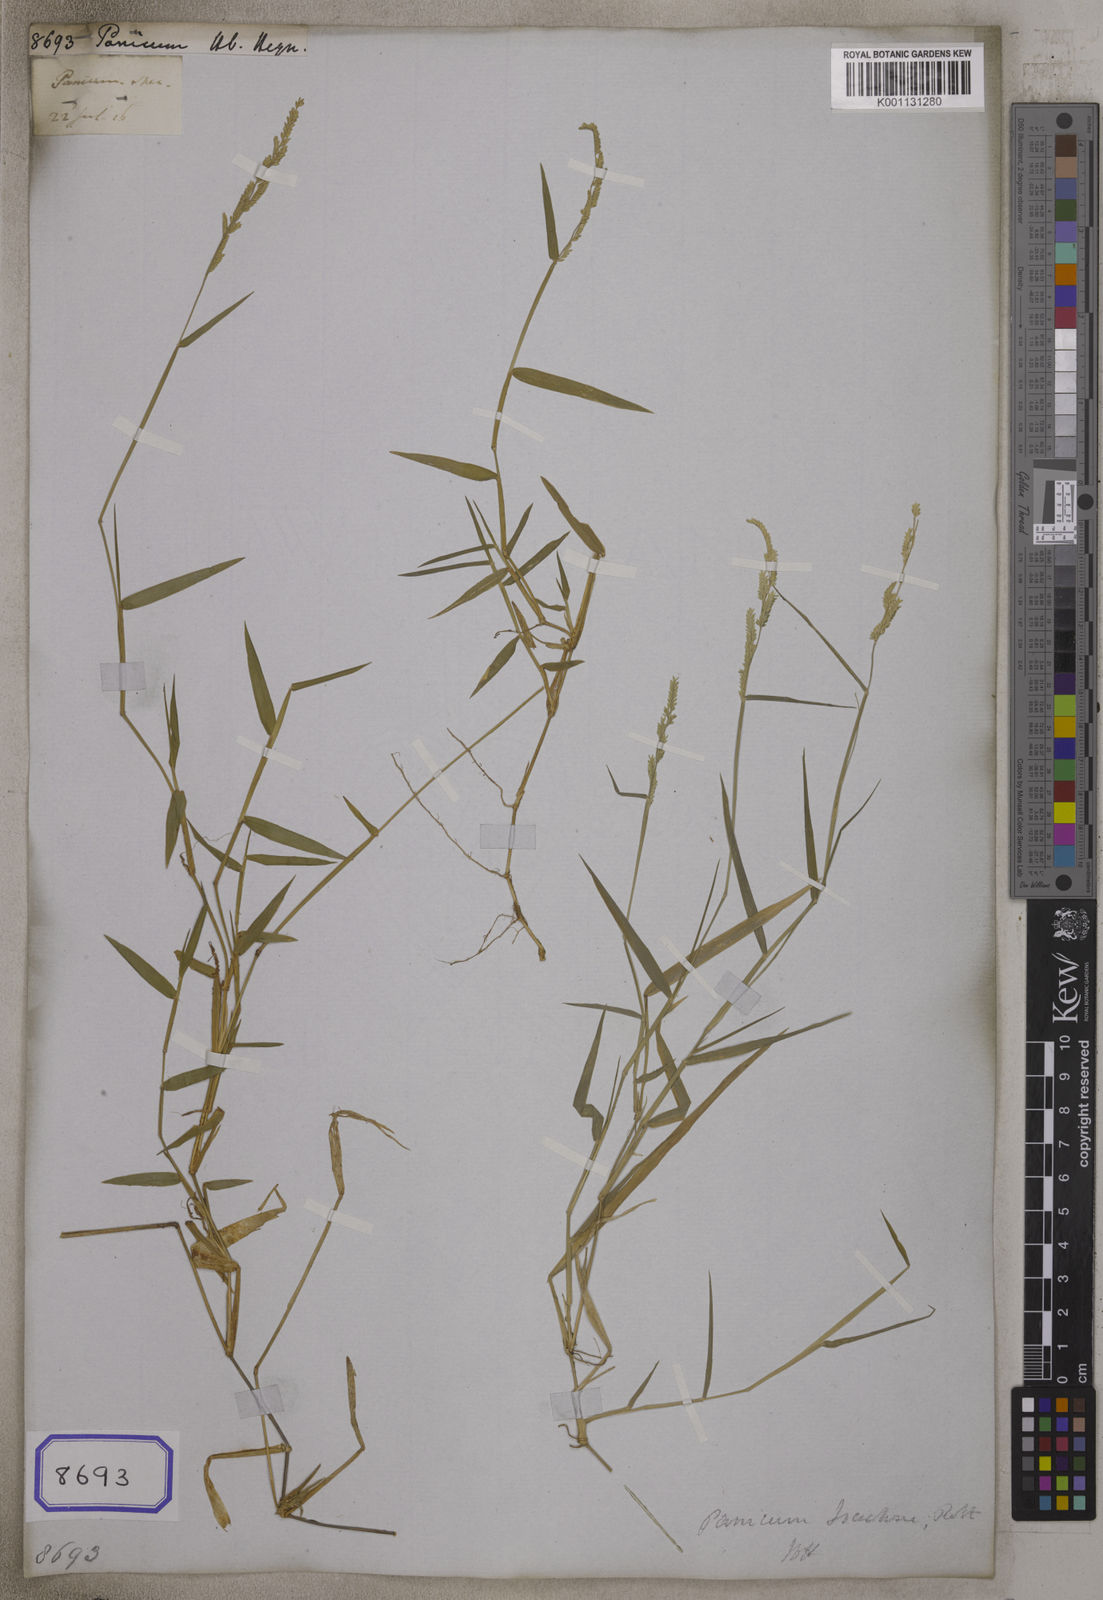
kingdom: Plantae
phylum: Tracheophyta
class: Liliopsida
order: Poales
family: Poaceae
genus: Panicum
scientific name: Panicum
